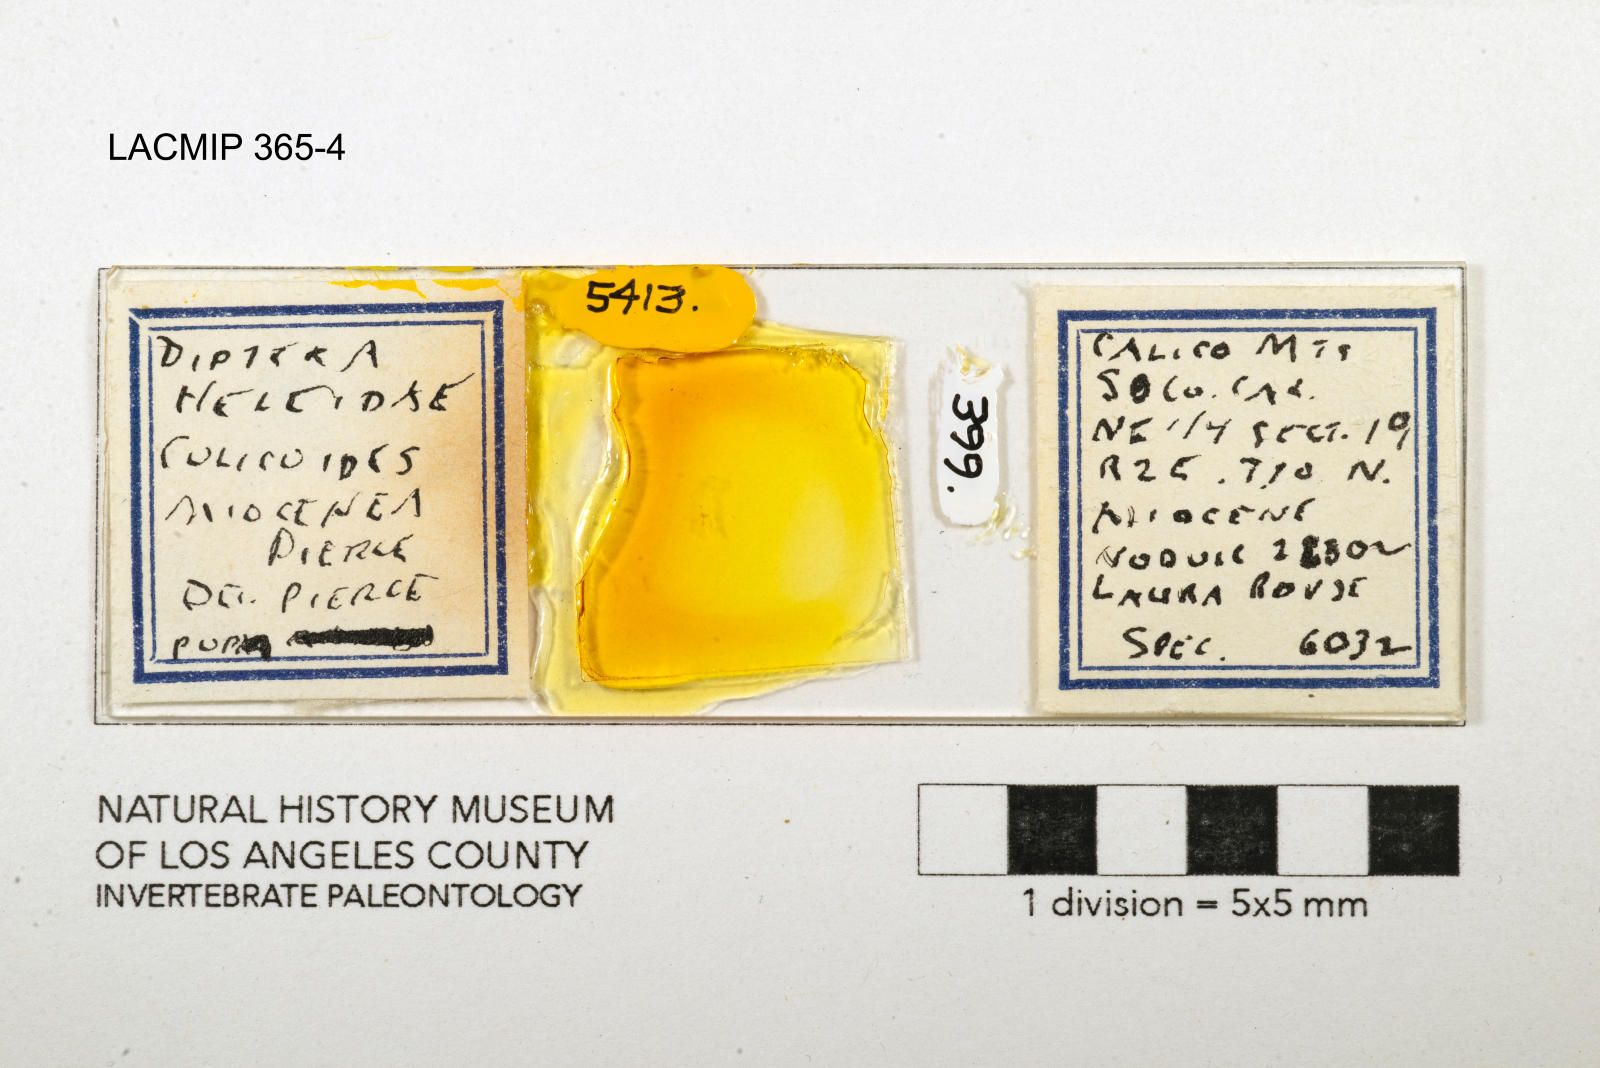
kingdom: Animalia
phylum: Arthropoda
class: Insecta
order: Diptera
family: Ceratopogonidae
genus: Culicoides
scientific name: Culicoides miocenicus
